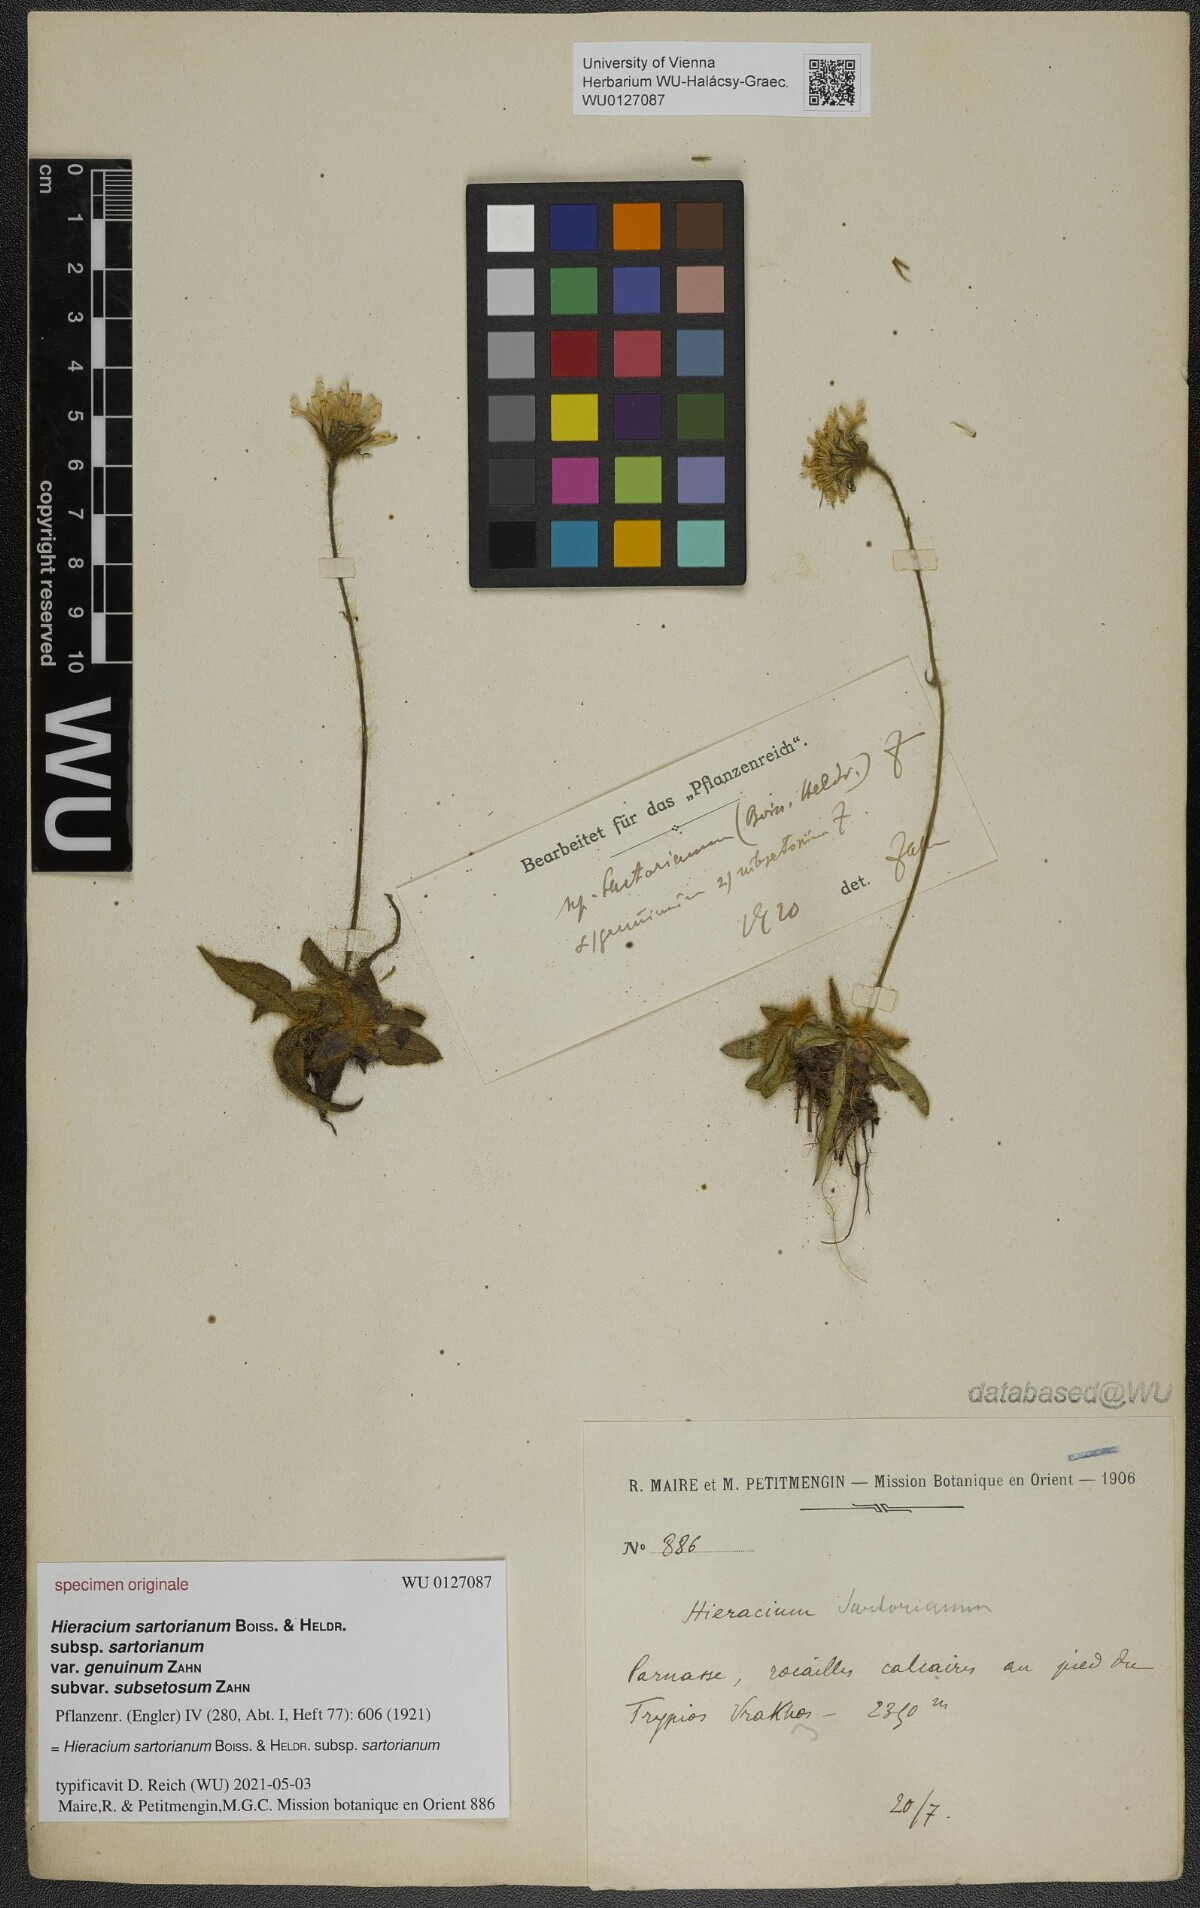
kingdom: Plantae
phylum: Tracheophyta
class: Magnoliopsida
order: Asterales
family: Asteraceae
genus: Hieracium
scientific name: Hieracium sartorianum
